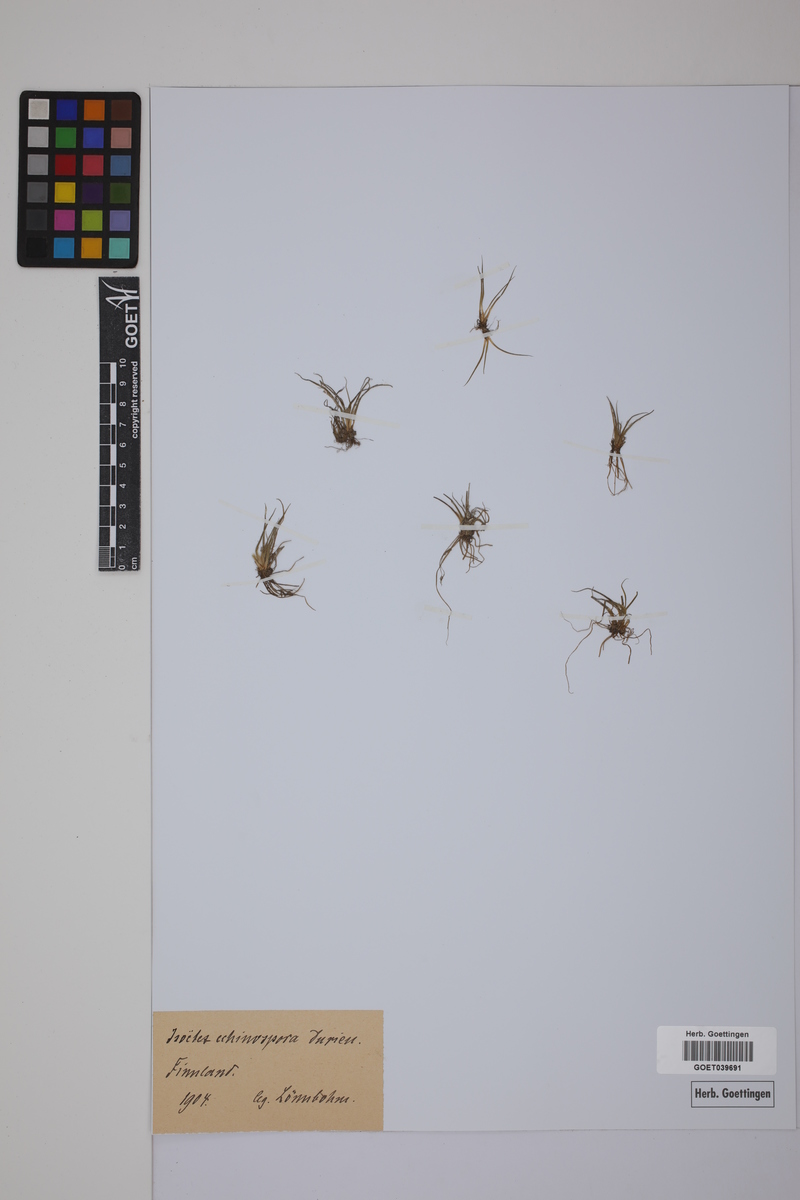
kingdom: Plantae
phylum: Tracheophyta
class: Lycopodiopsida
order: Isoetales
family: Isoetaceae
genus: Isoetes
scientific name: Isoetes echinospora
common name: Spring quillwort
